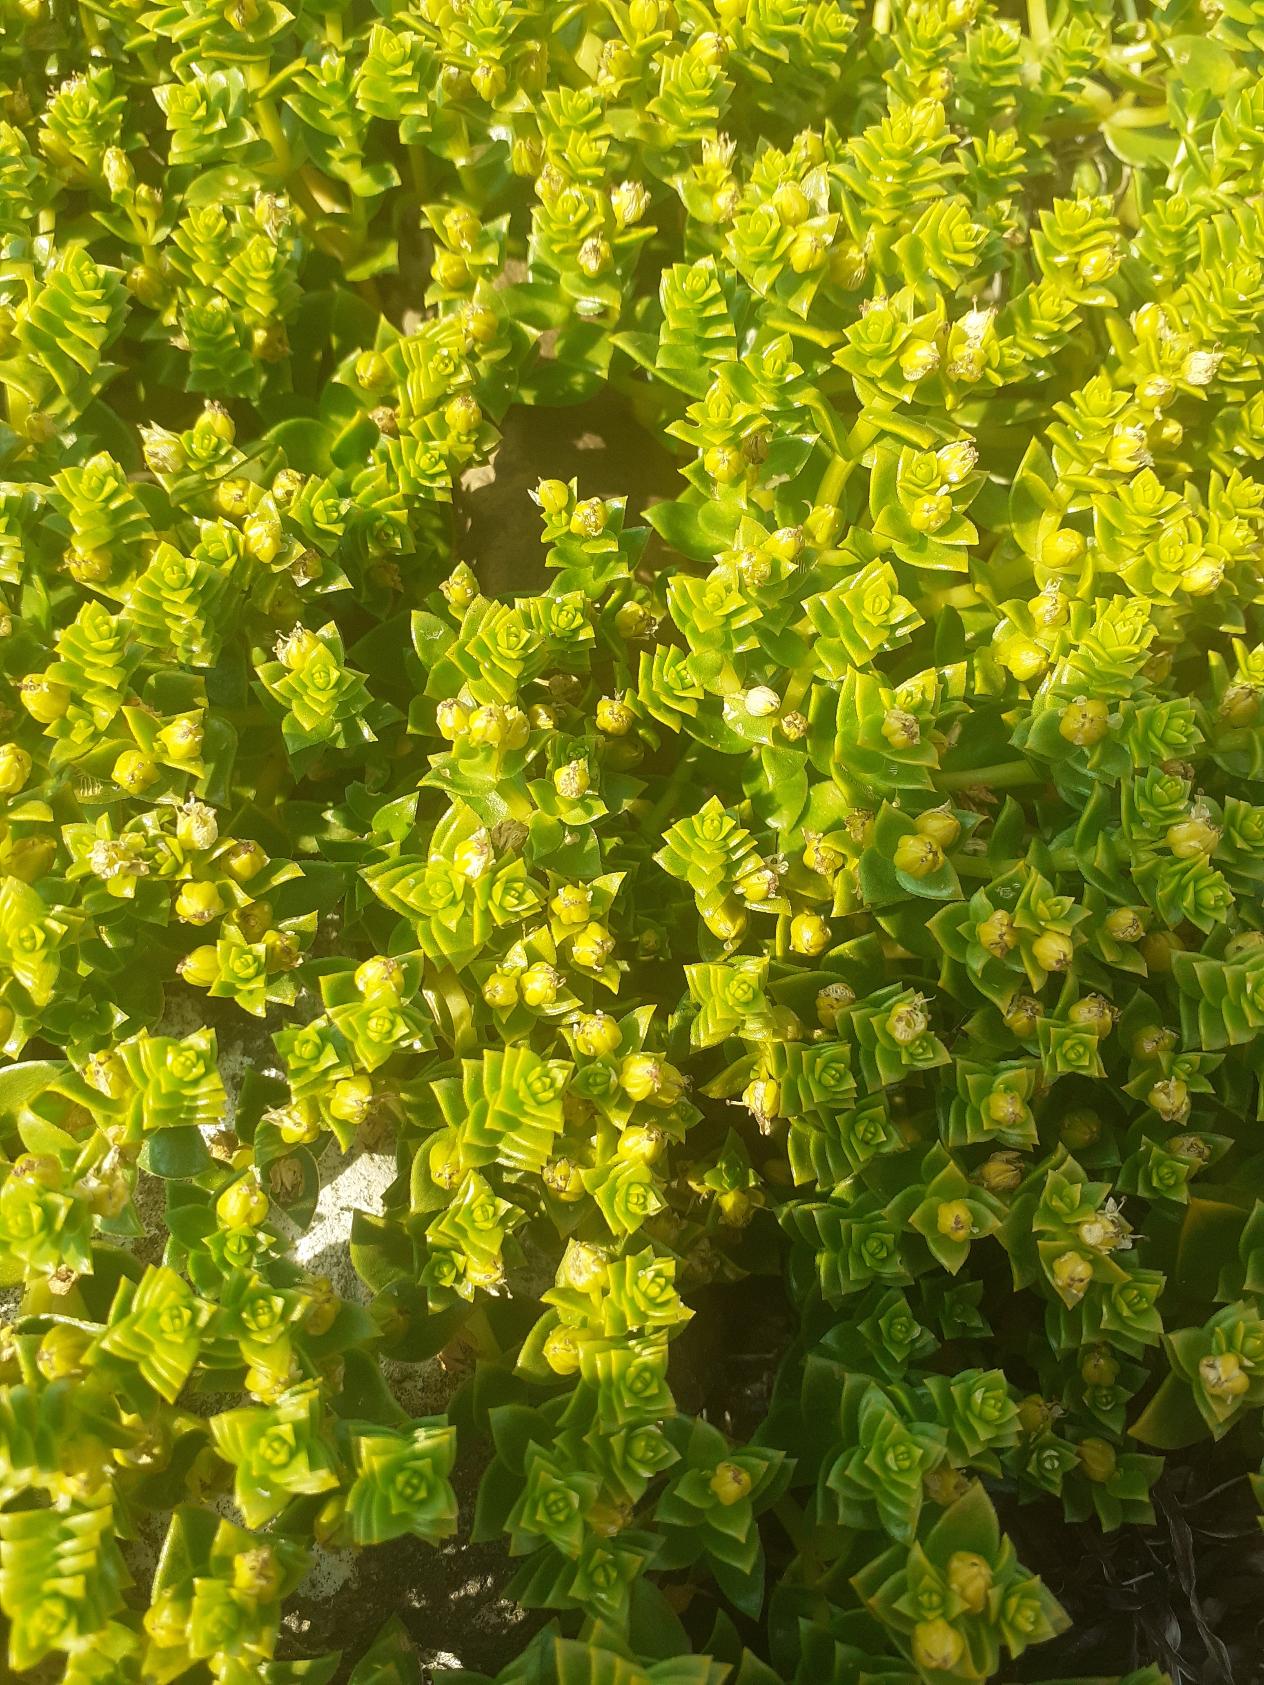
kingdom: Plantae
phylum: Tracheophyta
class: Magnoliopsida
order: Caryophyllales
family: Caryophyllaceae
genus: Honckenya
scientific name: Honckenya peploides
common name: Strandarve
